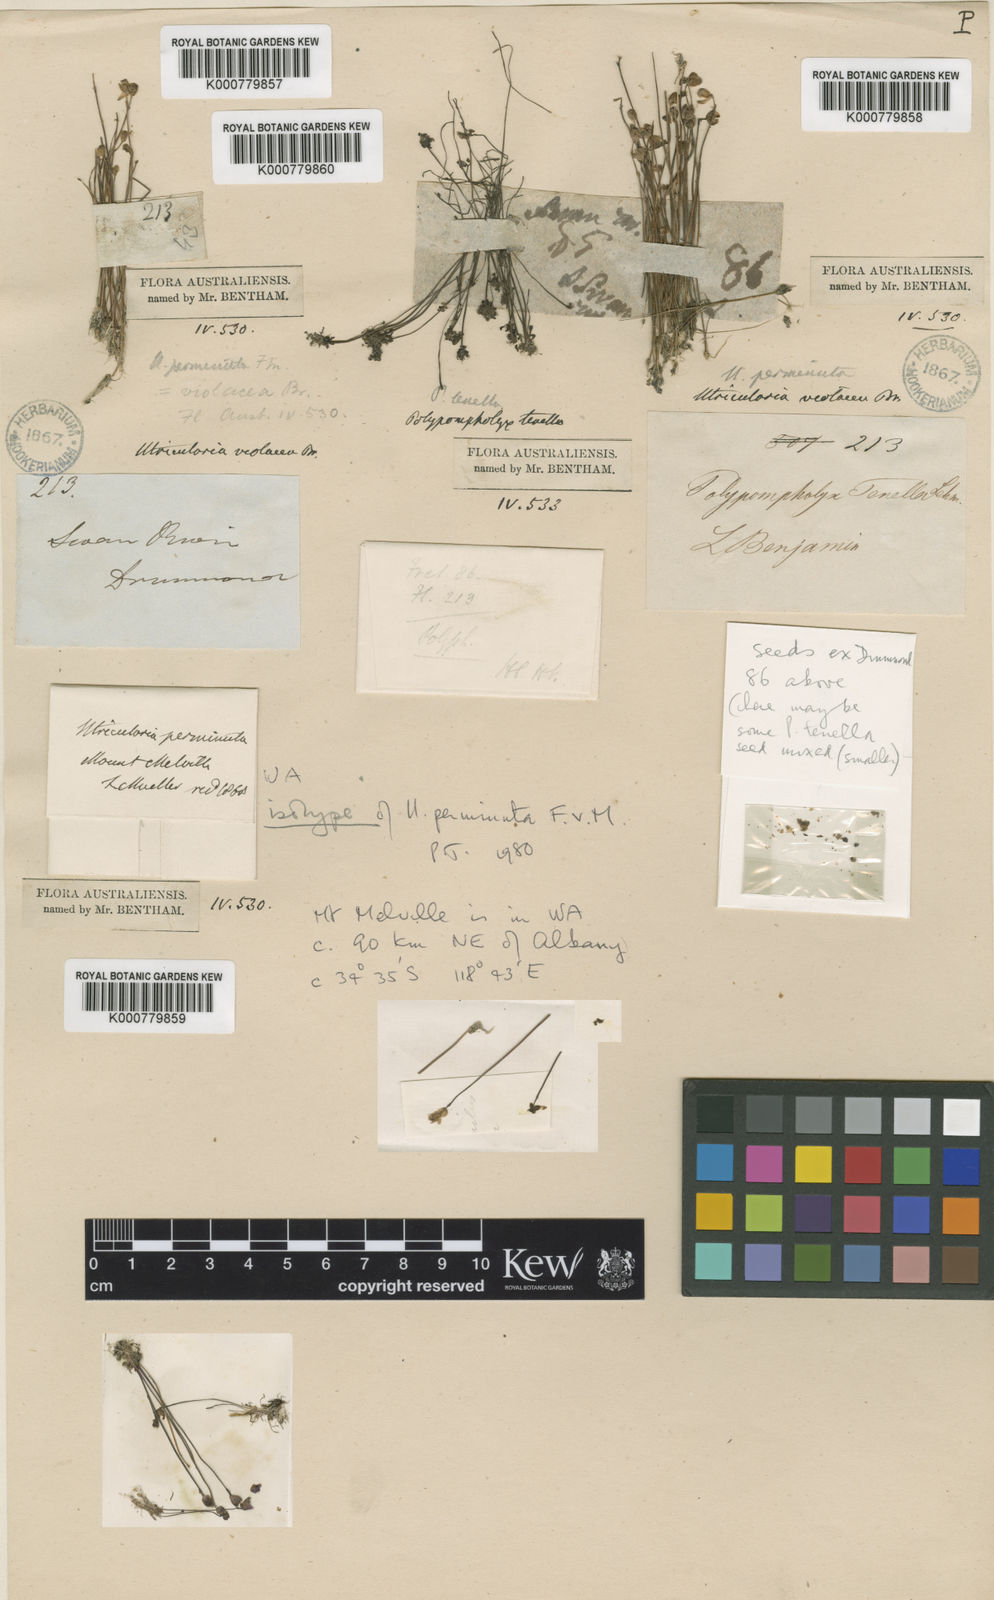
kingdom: Plantae
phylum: Tracheophyta
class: Magnoliopsida
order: Lamiales
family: Lentibulariaceae
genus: Utricularia
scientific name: Utricularia violacea
